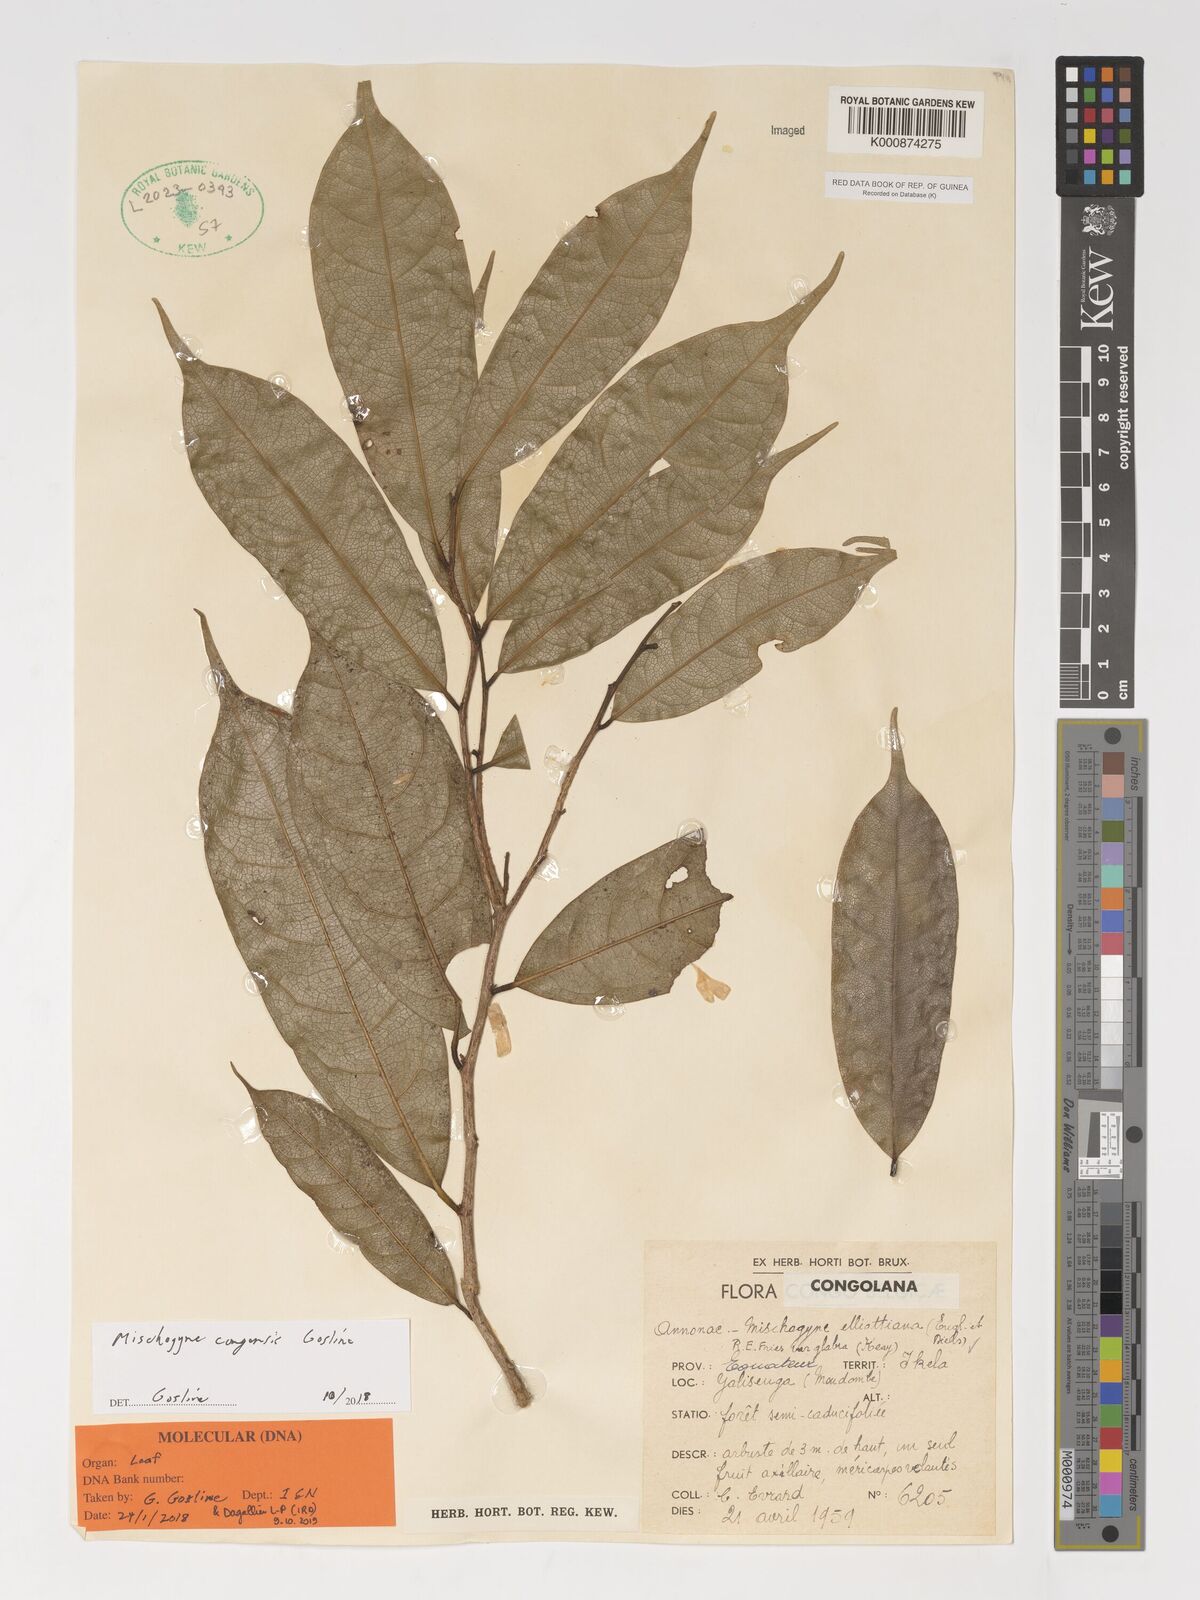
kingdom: Plantae
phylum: Tracheophyta
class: Magnoliopsida
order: Magnoliales
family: Annonaceae
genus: Mischogyne
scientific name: Mischogyne congensis
